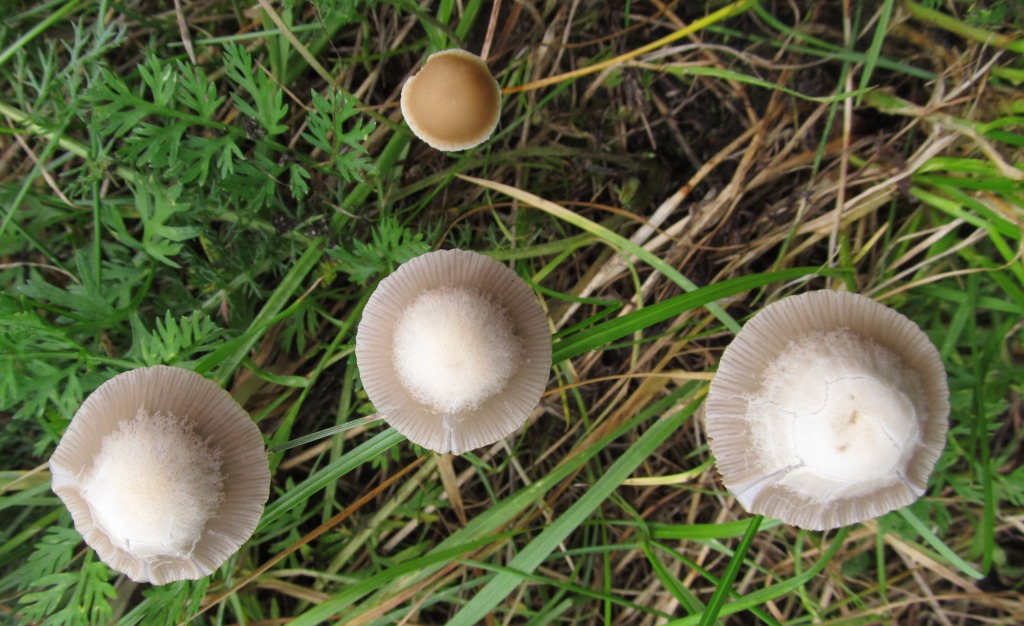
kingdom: Fungi
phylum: Basidiomycota
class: Agaricomycetes
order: Agaricales
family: Psathyrellaceae
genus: Coprinopsis
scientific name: Coprinopsis marcescibilis
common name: ruderat-blækhat
